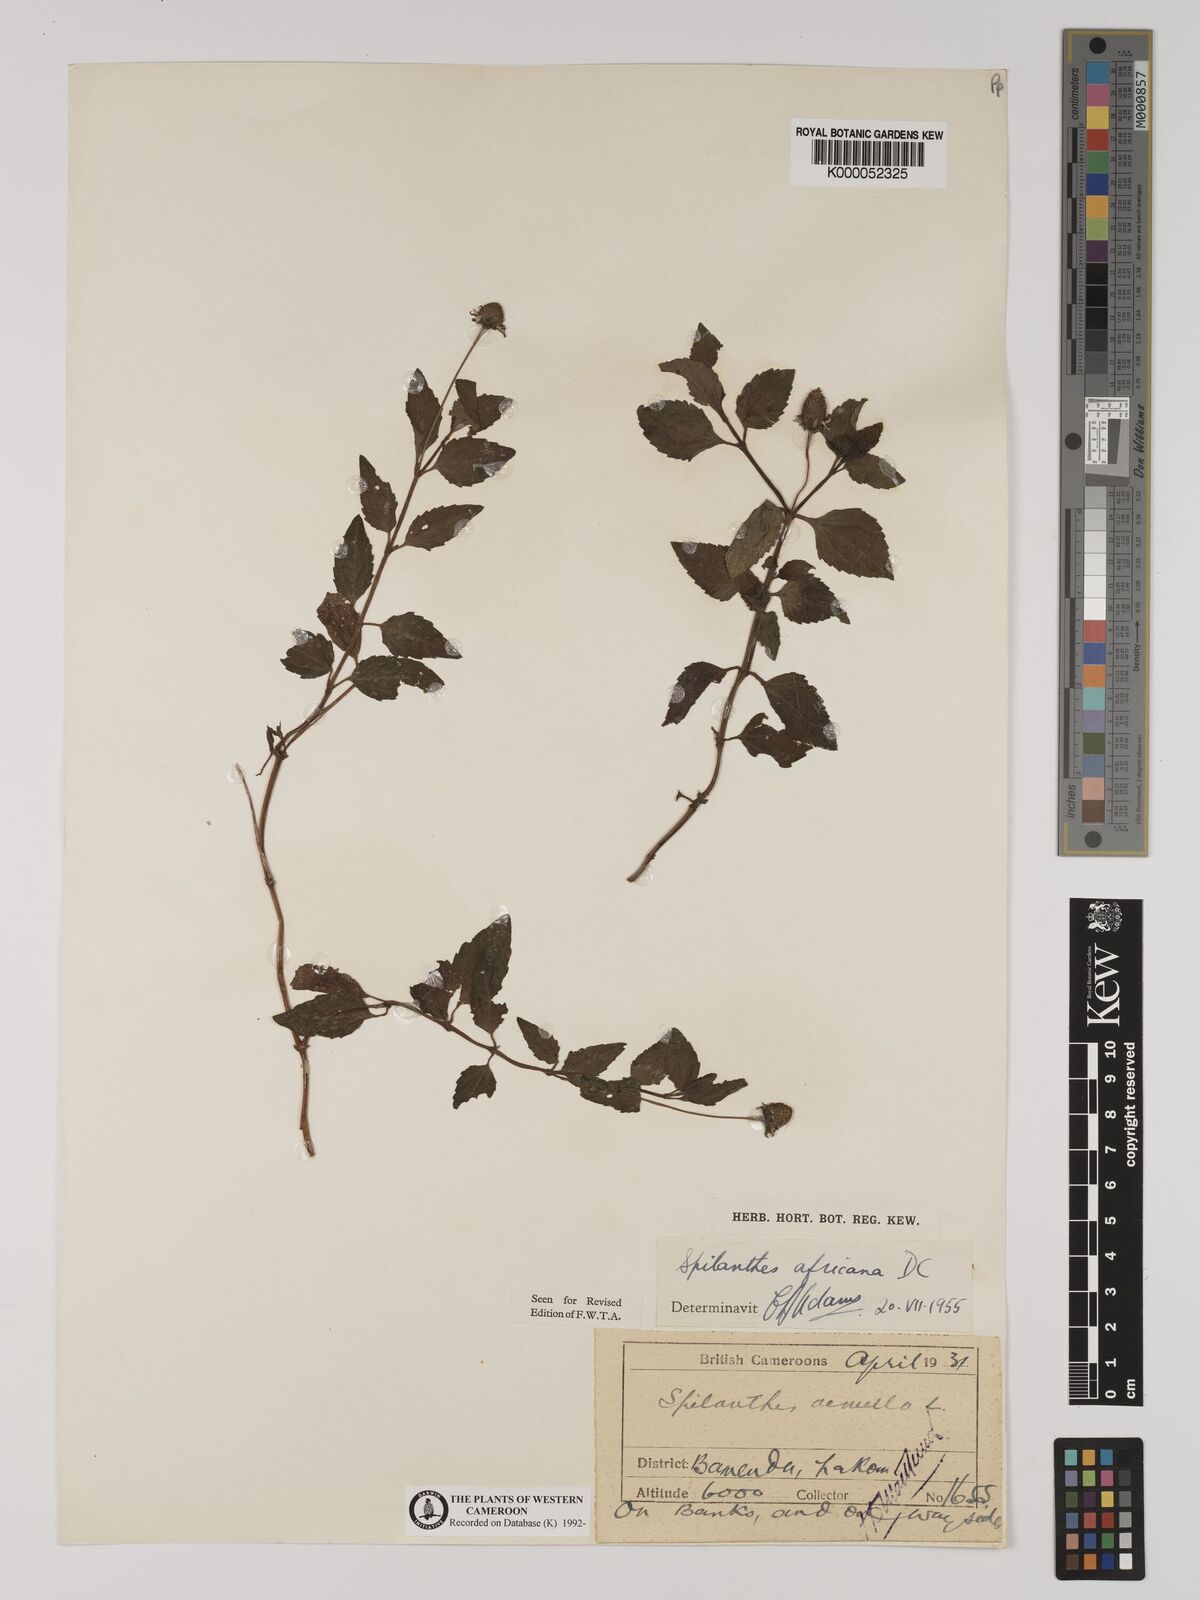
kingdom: Plantae
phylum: Tracheophyta
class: Magnoliopsida
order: Asterales
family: Asteraceae
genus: Acmella
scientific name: Acmella caulirhiza
